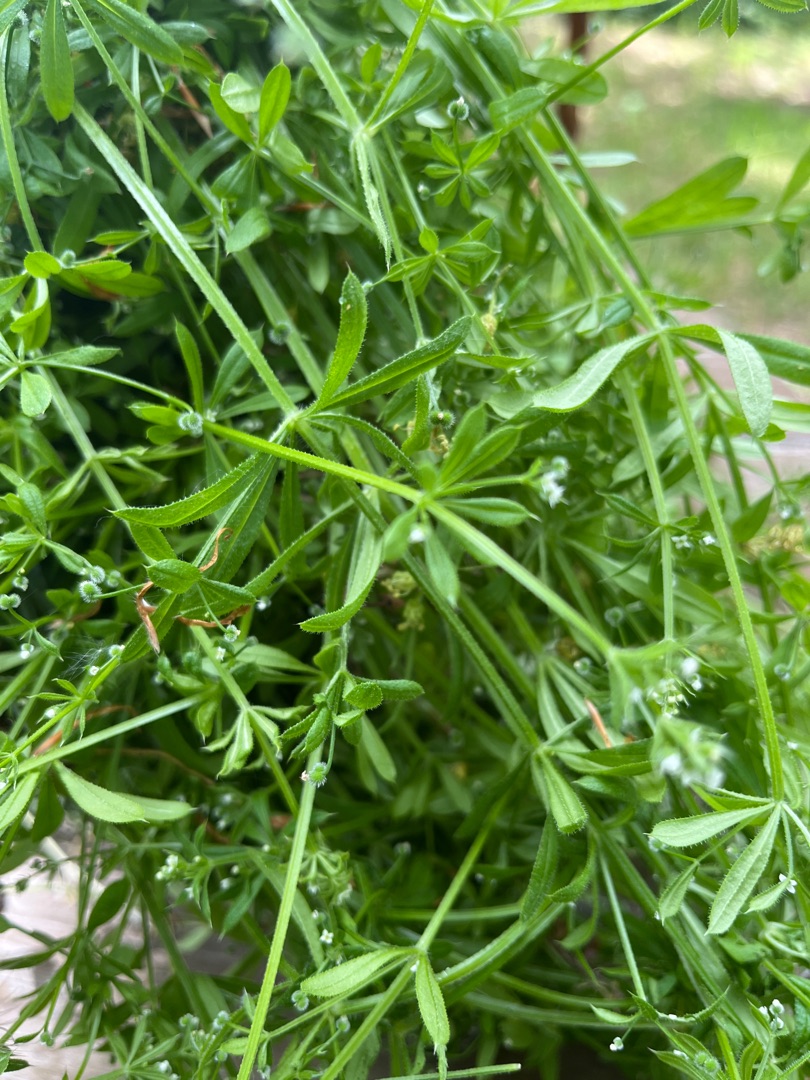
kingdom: Plantae
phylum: Tracheophyta
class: Magnoliopsida
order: Gentianales
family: Rubiaceae
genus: Galium
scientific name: Galium aparine
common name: Burre-snerre
